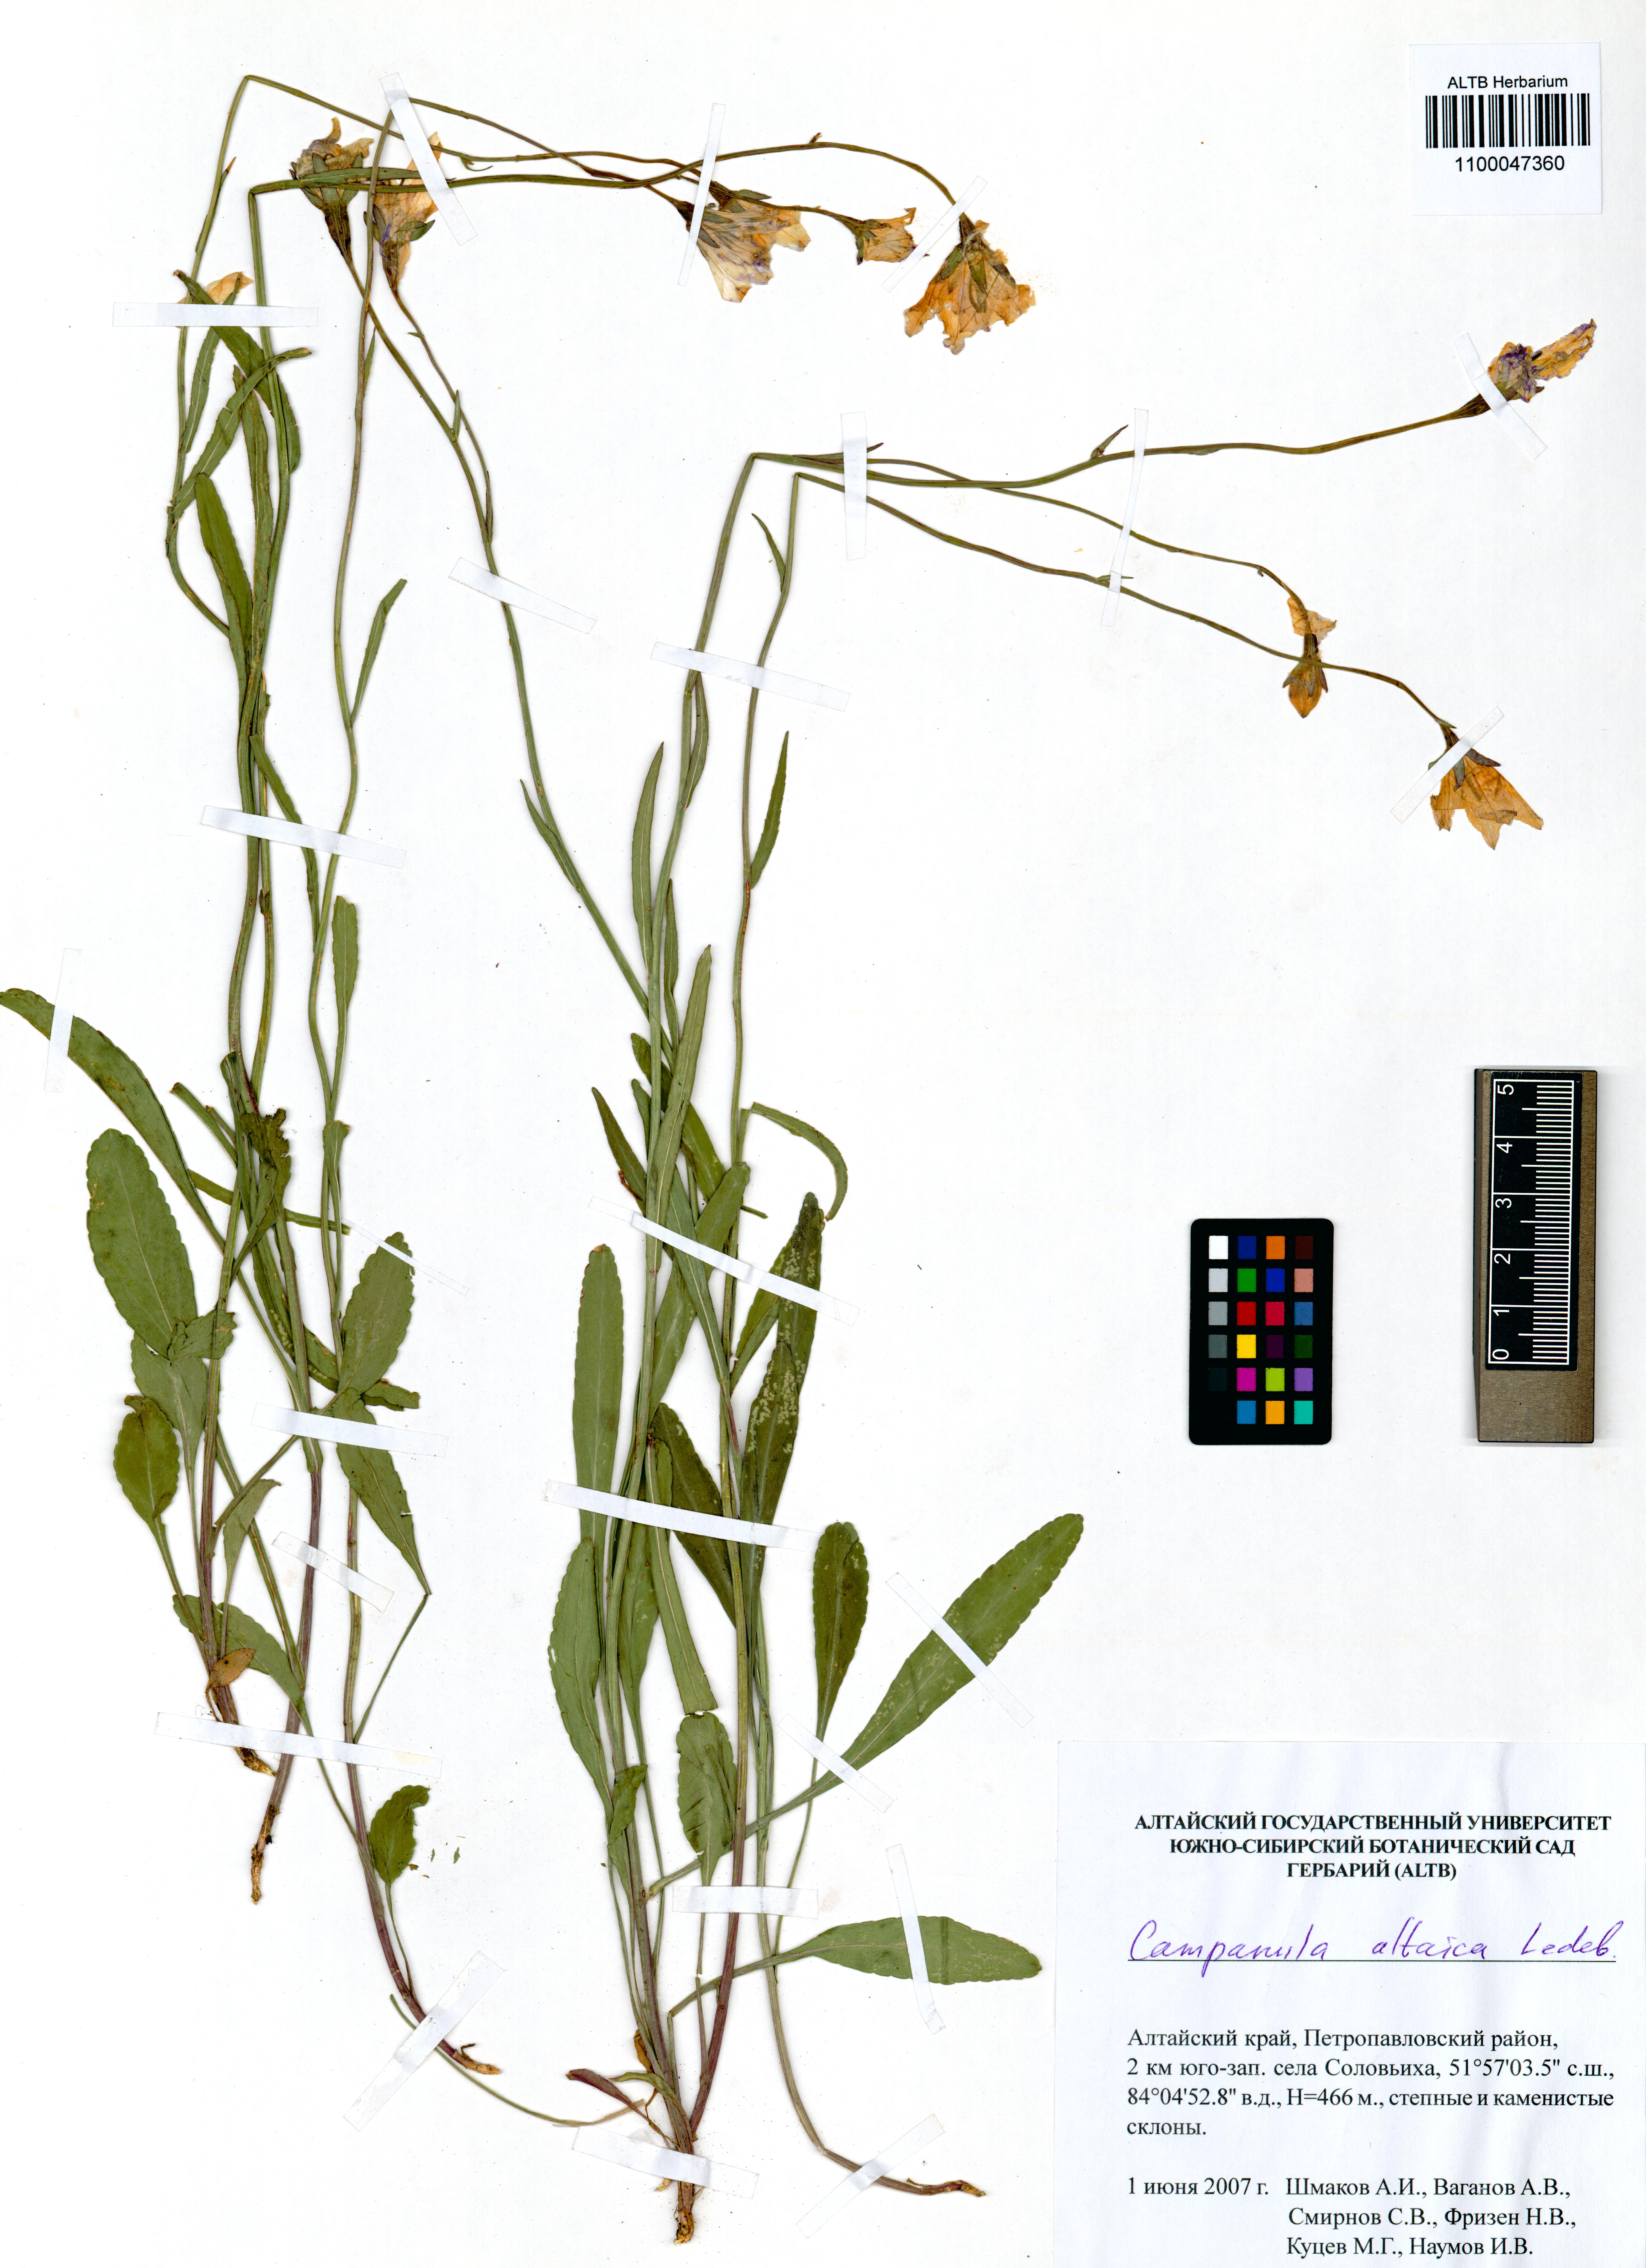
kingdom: Plantae
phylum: Tracheophyta
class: Magnoliopsida
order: Asterales
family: Campanulaceae
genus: Campanula
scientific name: Campanula stevenii
